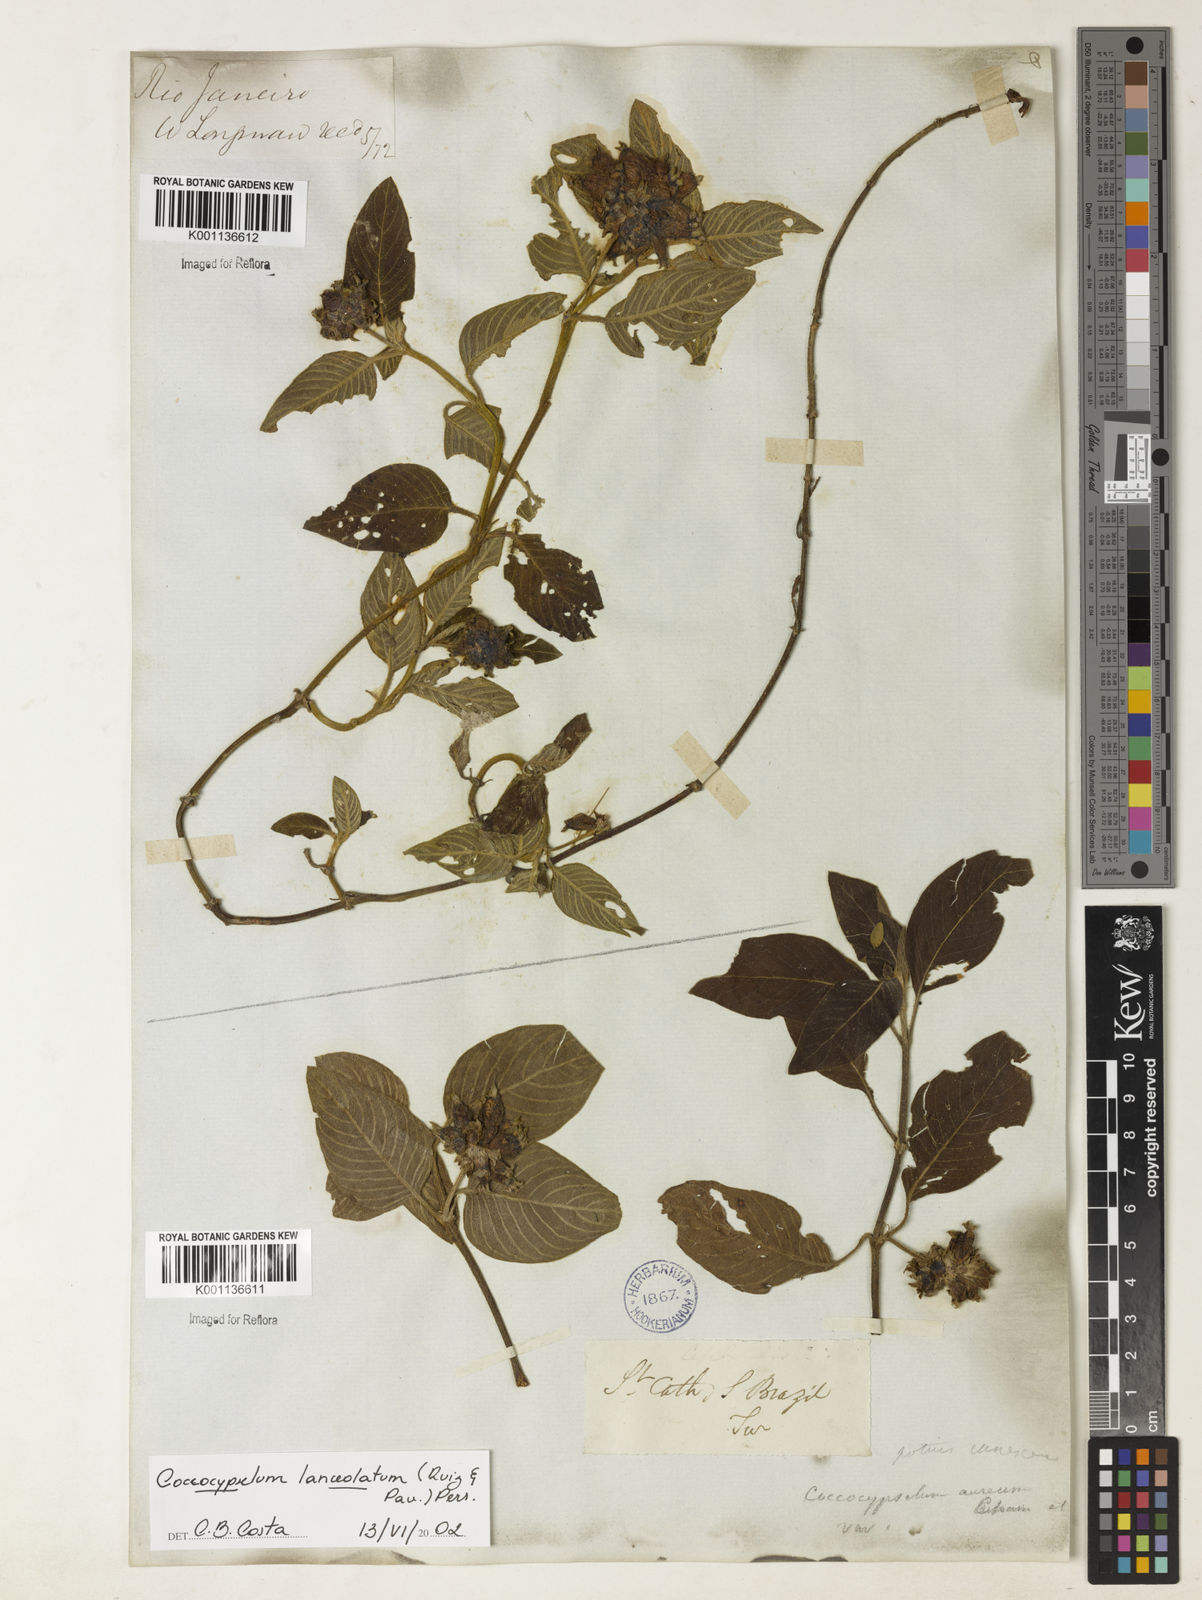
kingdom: Plantae
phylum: Tracheophyta
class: Magnoliopsida
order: Gentianales
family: Rubiaceae
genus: Coccocypselum
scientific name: Coccocypselum lanceolatum
